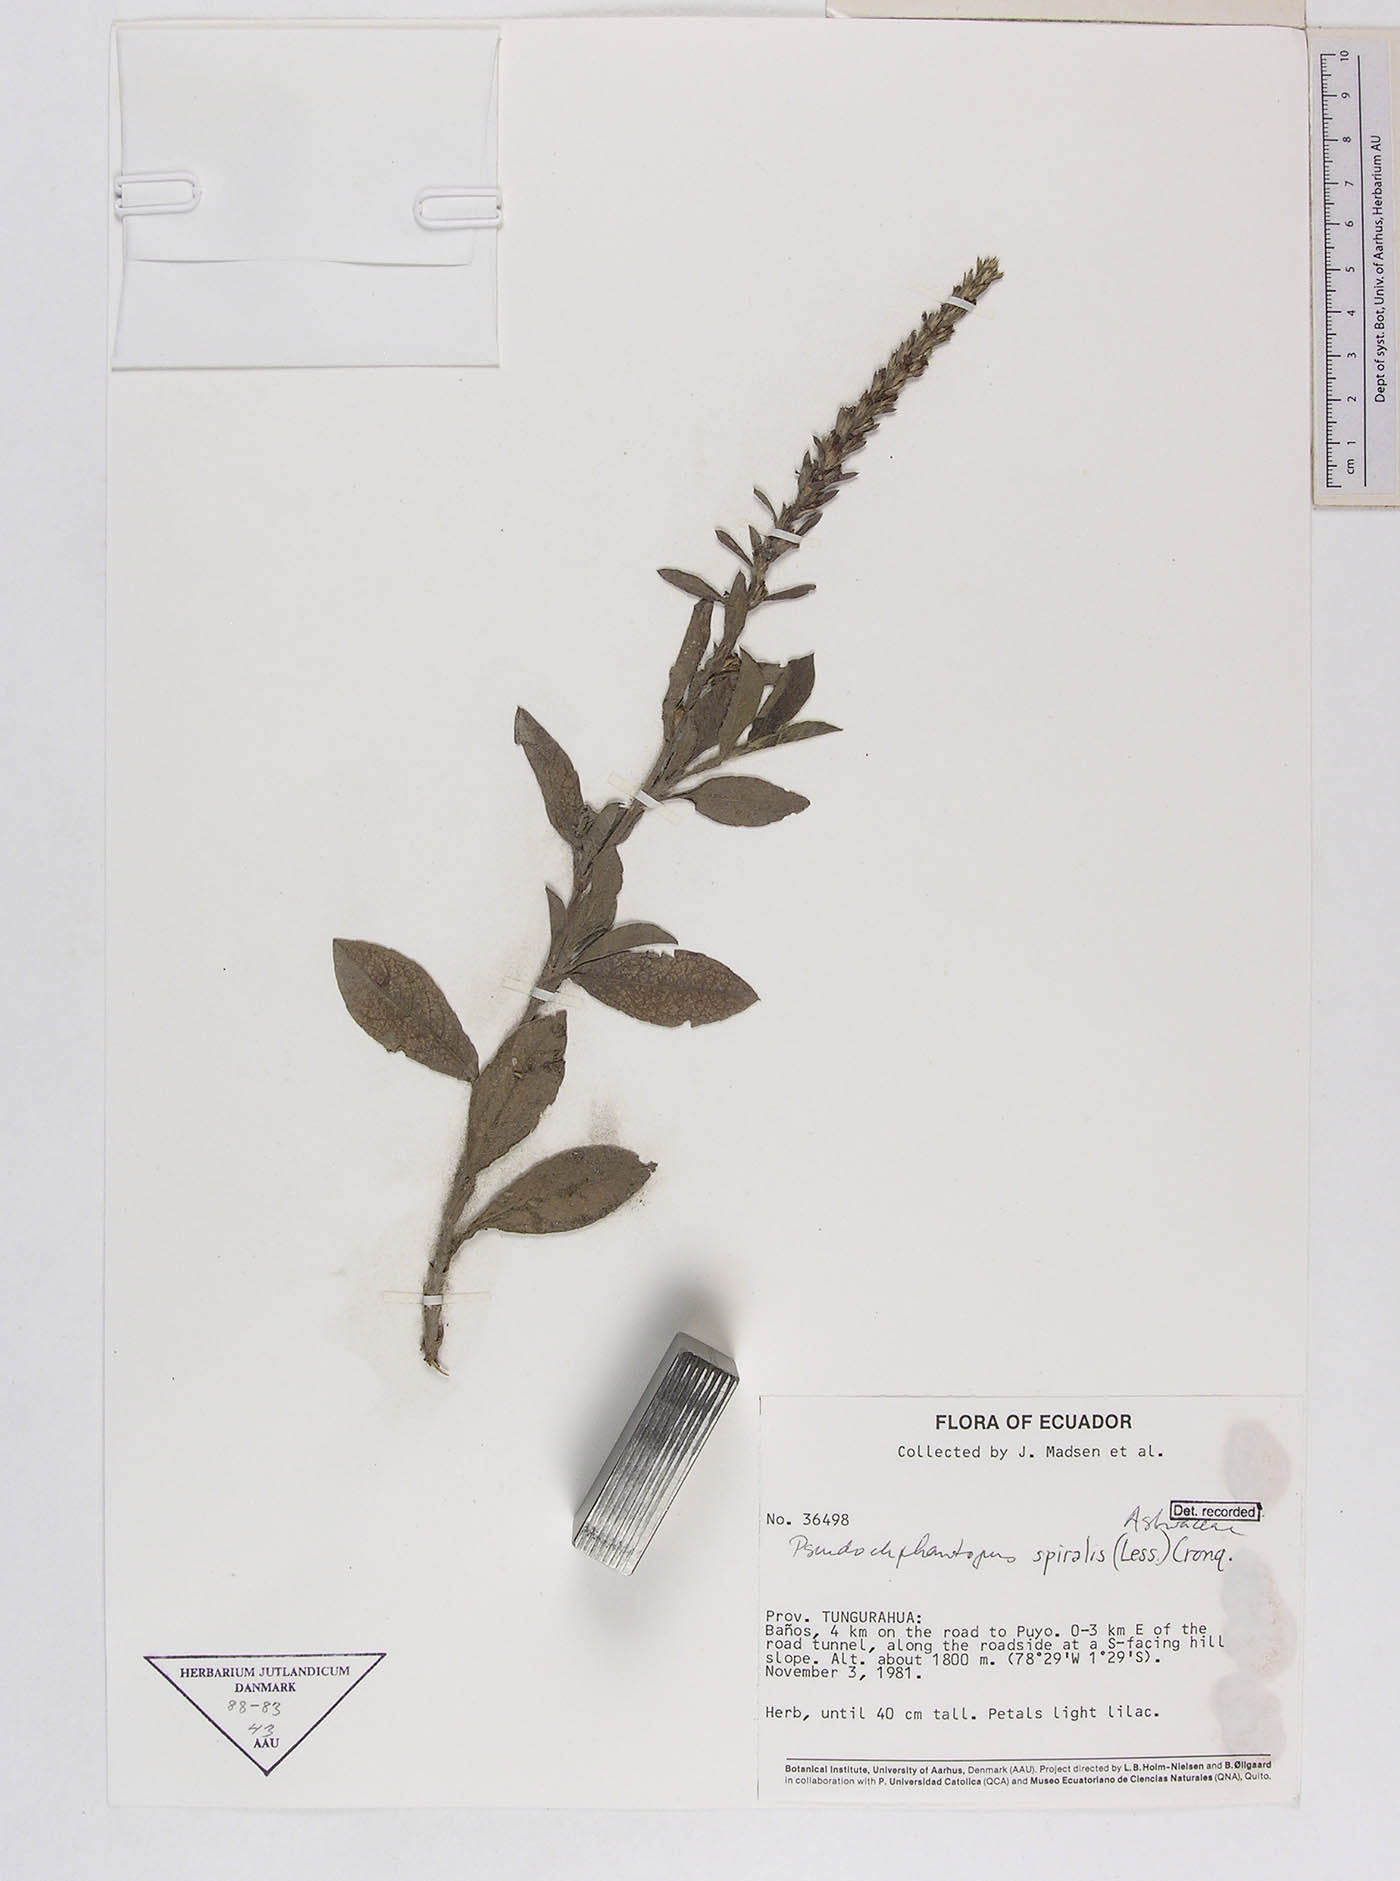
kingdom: Plantae
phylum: Tracheophyta
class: Magnoliopsida
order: Asterales
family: Asteraceae
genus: Pseudelephantopus
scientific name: Pseudelephantopus spiralis
